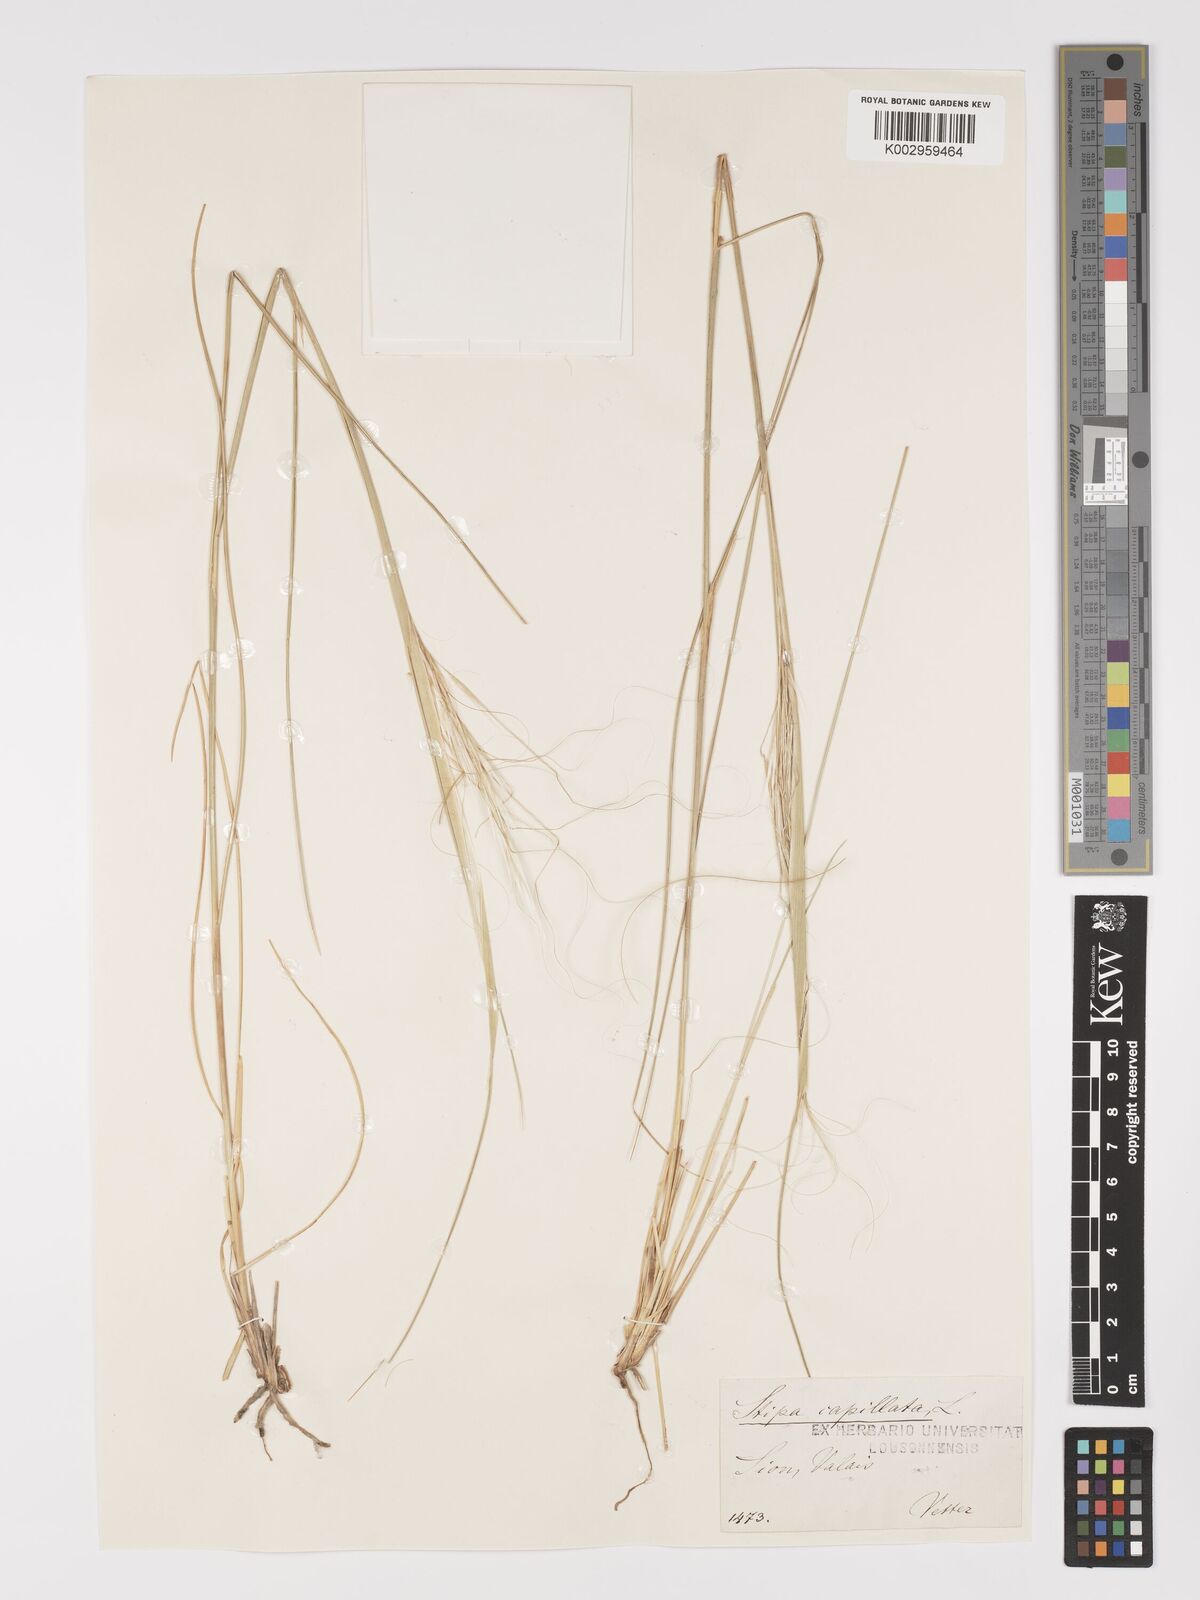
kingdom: Plantae
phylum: Tracheophyta
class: Liliopsida
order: Poales
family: Poaceae
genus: Stipa
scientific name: Stipa capillata
